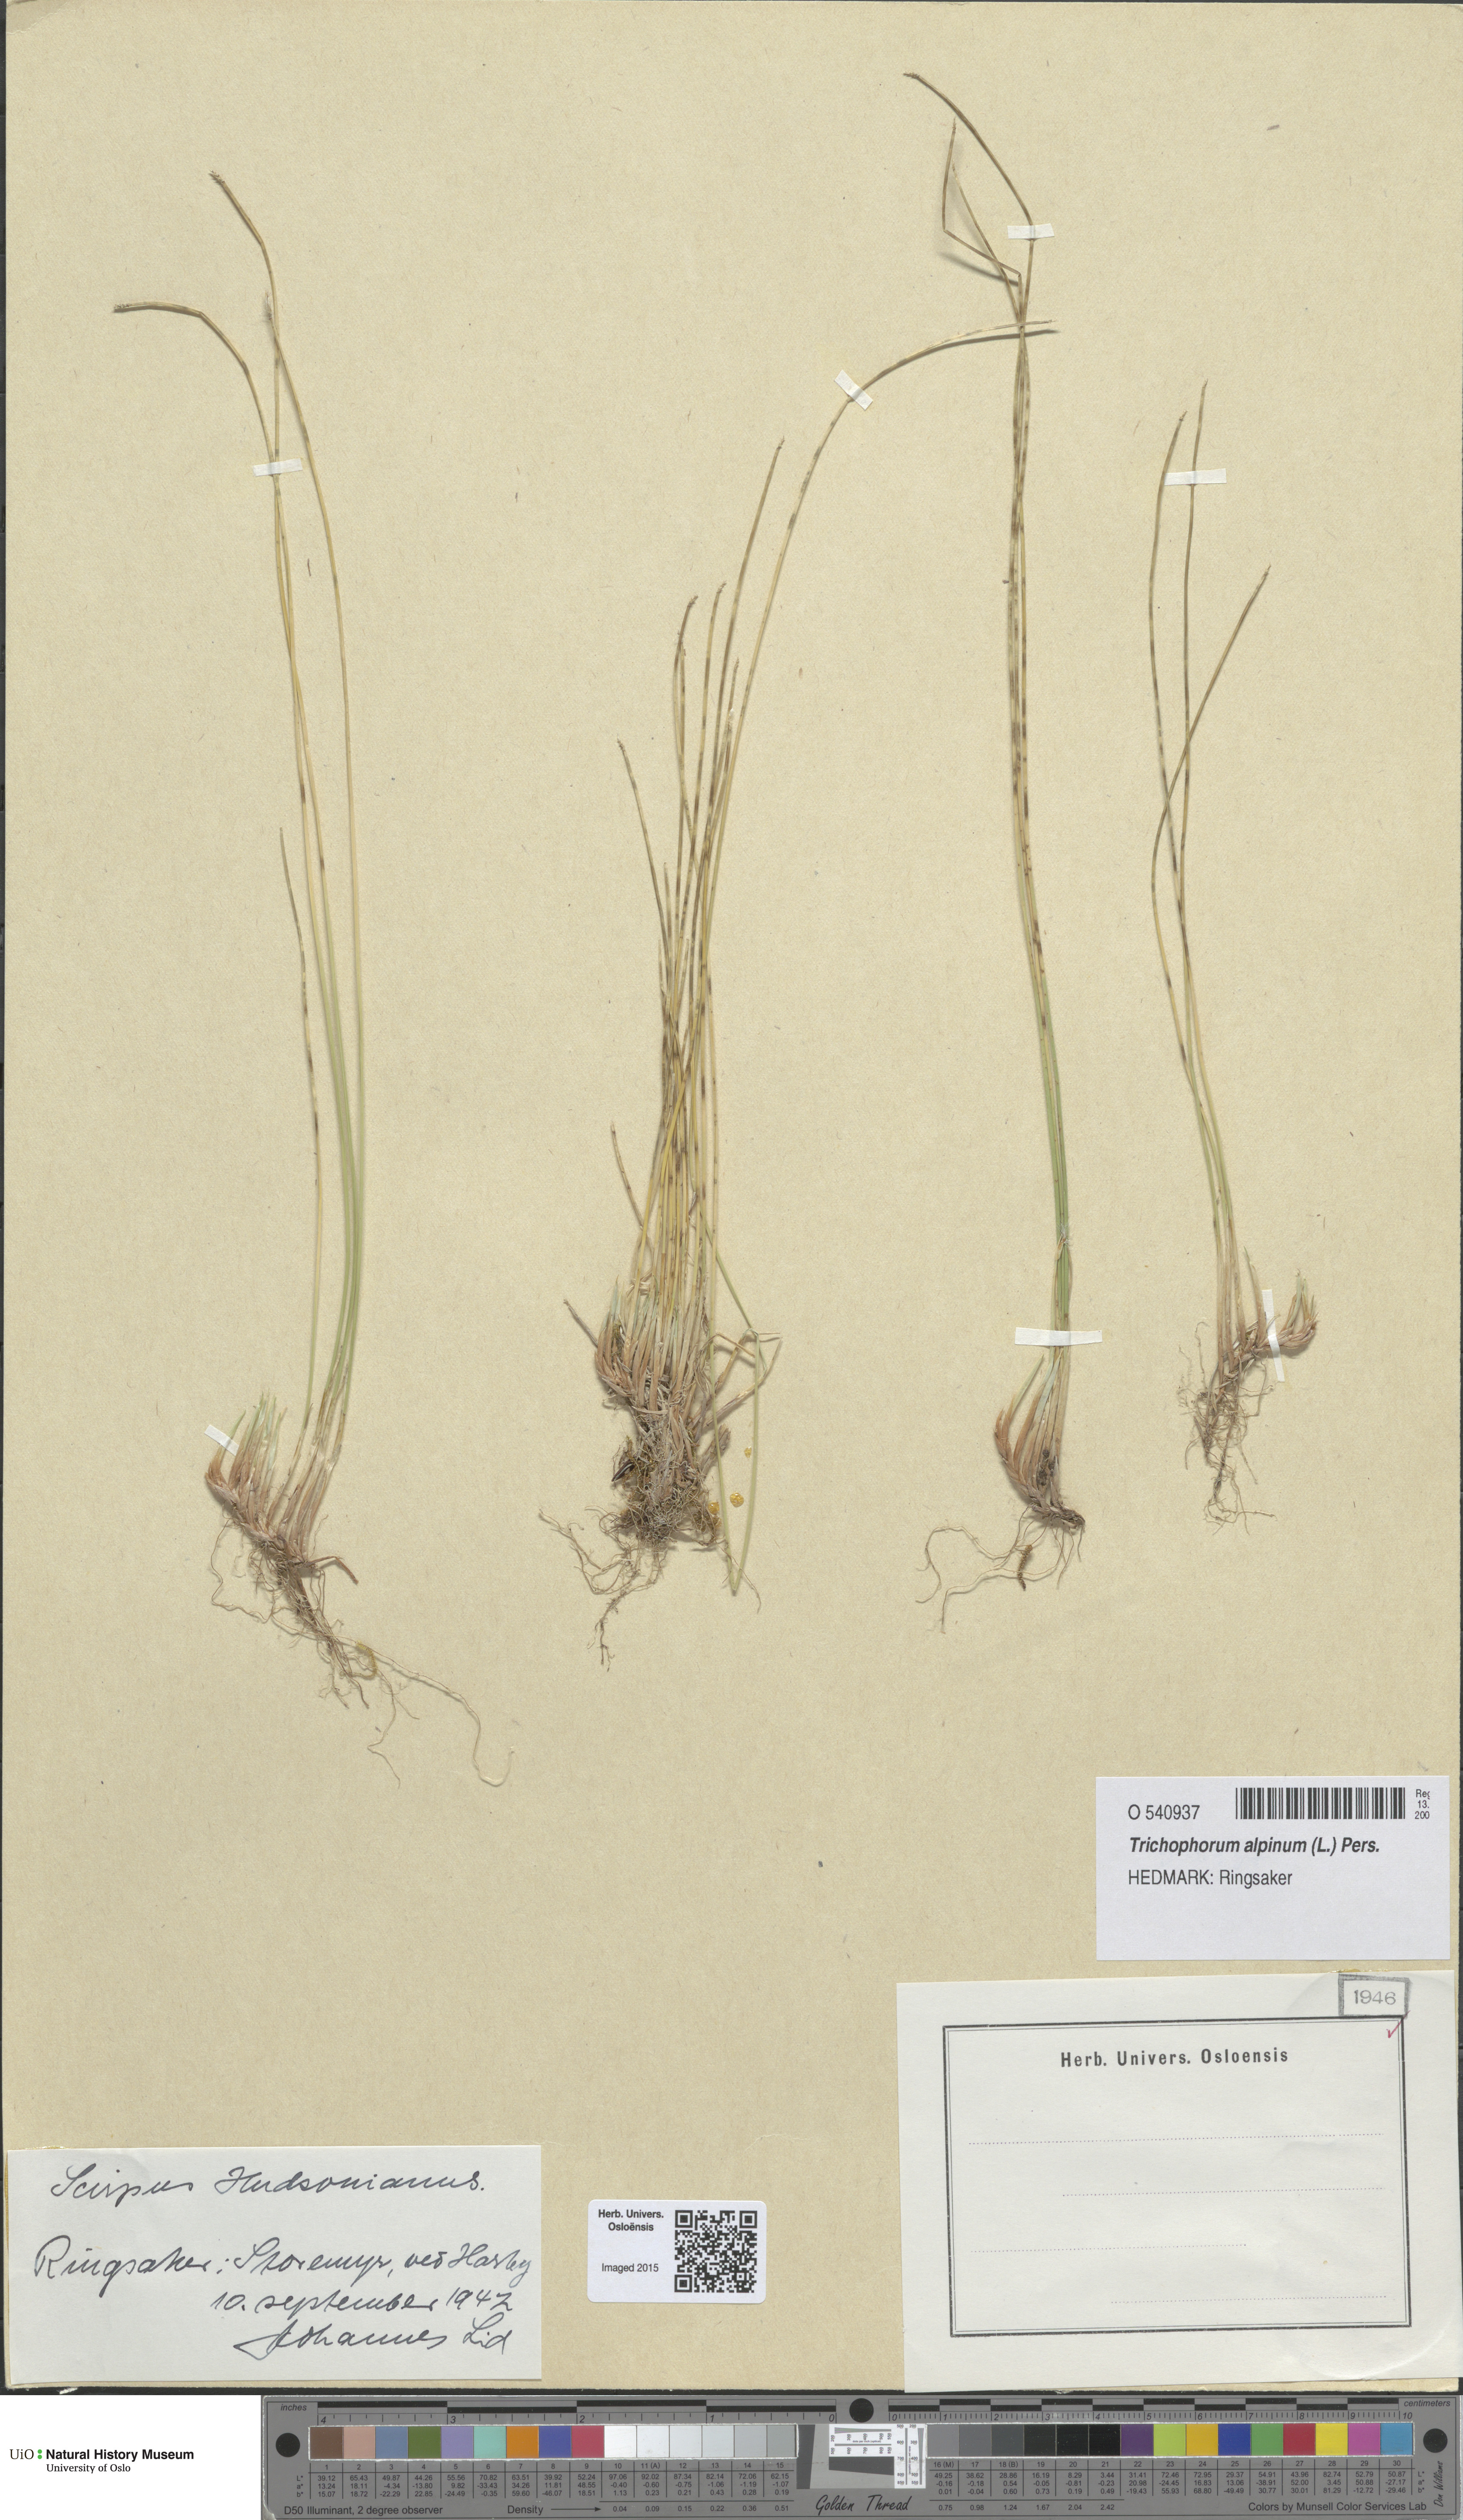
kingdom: Plantae
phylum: Tracheophyta
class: Liliopsida
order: Poales
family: Cyperaceae
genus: Trichophorum
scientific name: Trichophorum alpinum
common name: Alpine bulrush
